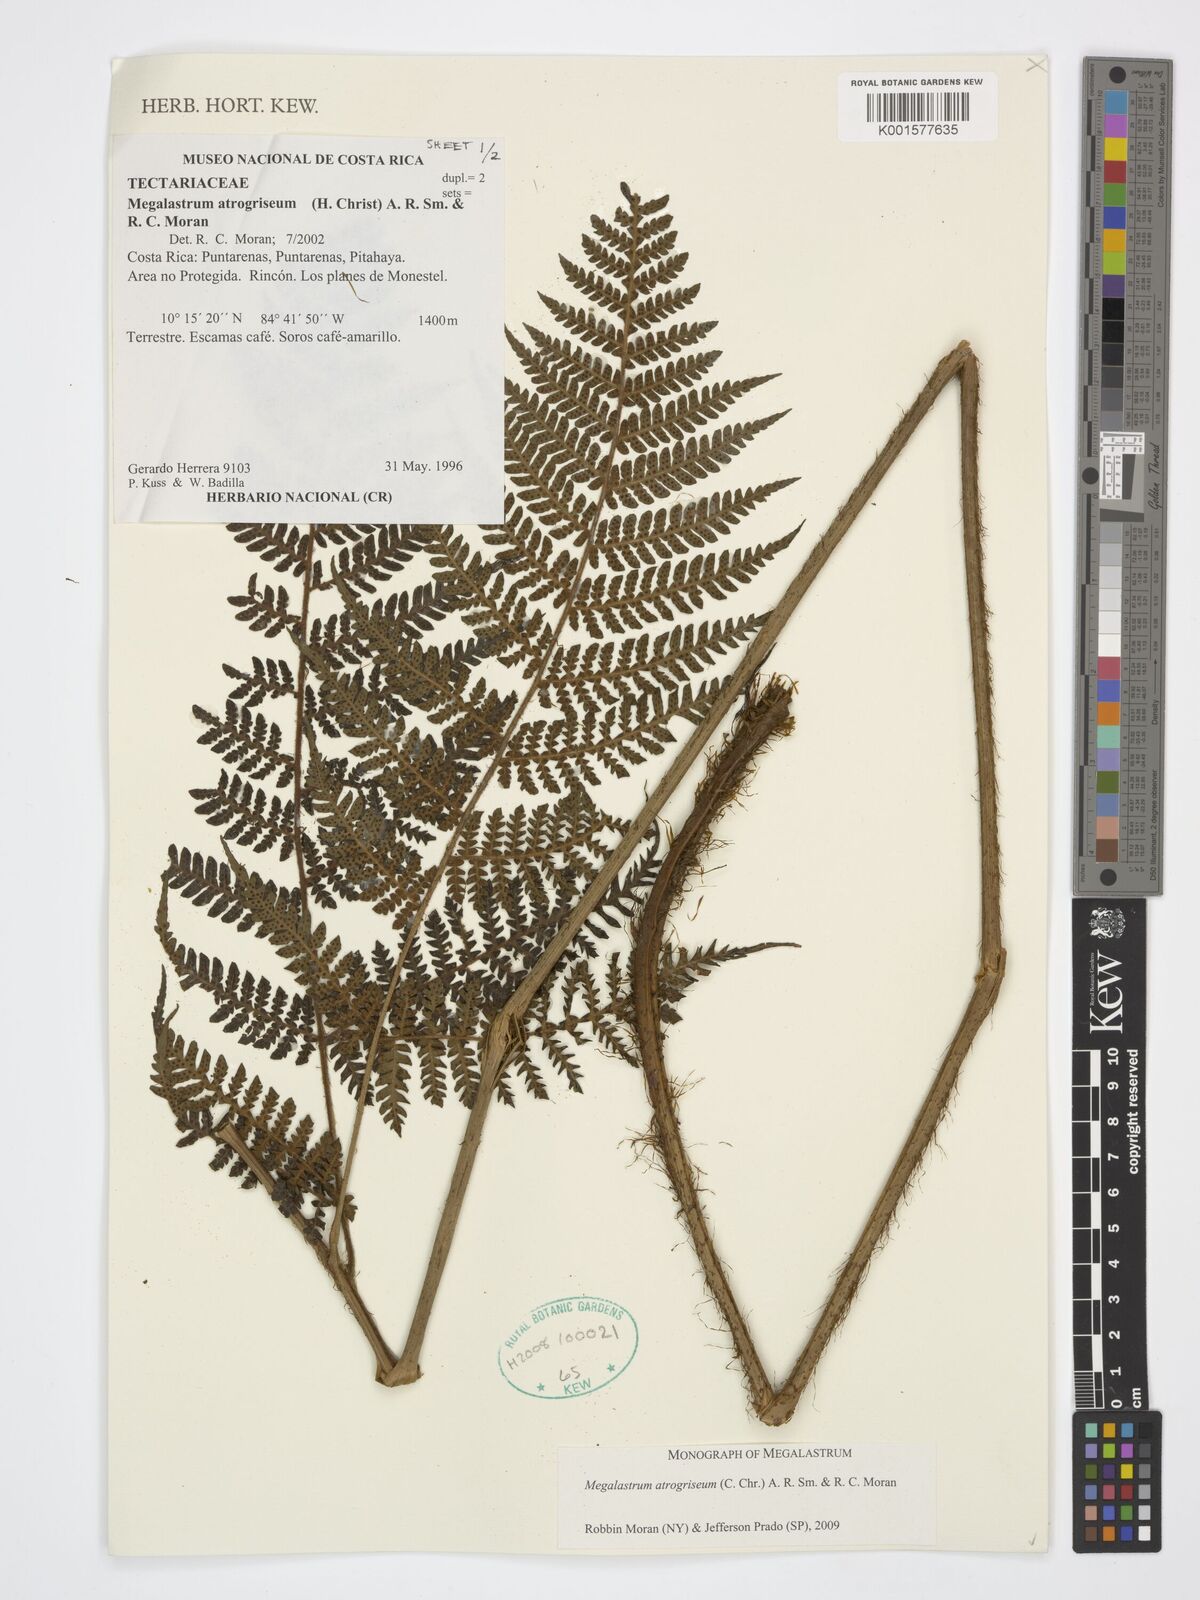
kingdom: Plantae
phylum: Tracheophyta
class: Polypodiopsida
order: Polypodiales
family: Dryopteridaceae
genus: Megalastrum
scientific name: Megalastrum atrogriseum
